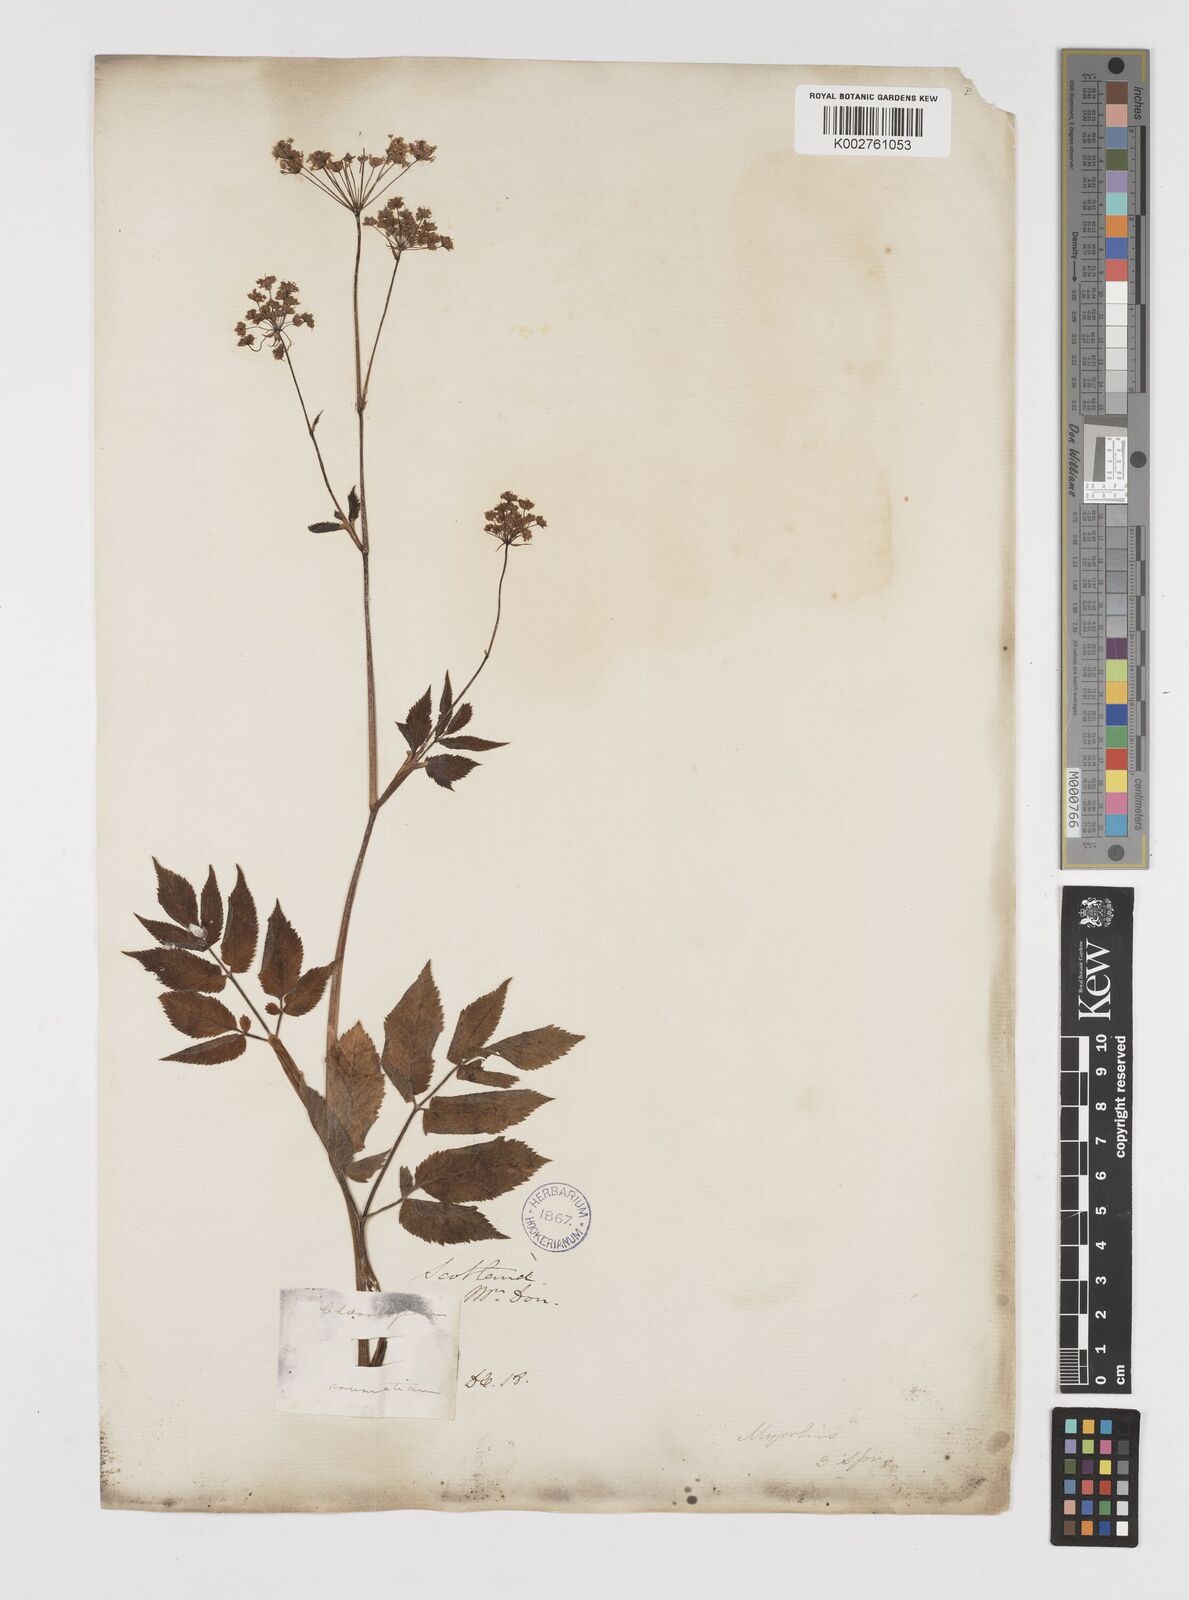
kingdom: Plantae
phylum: Tracheophyta
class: Magnoliopsida
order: Apiales
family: Apiaceae
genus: Chaerophyllum
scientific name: Chaerophyllum aromaticum
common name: Broadleaf chervil
